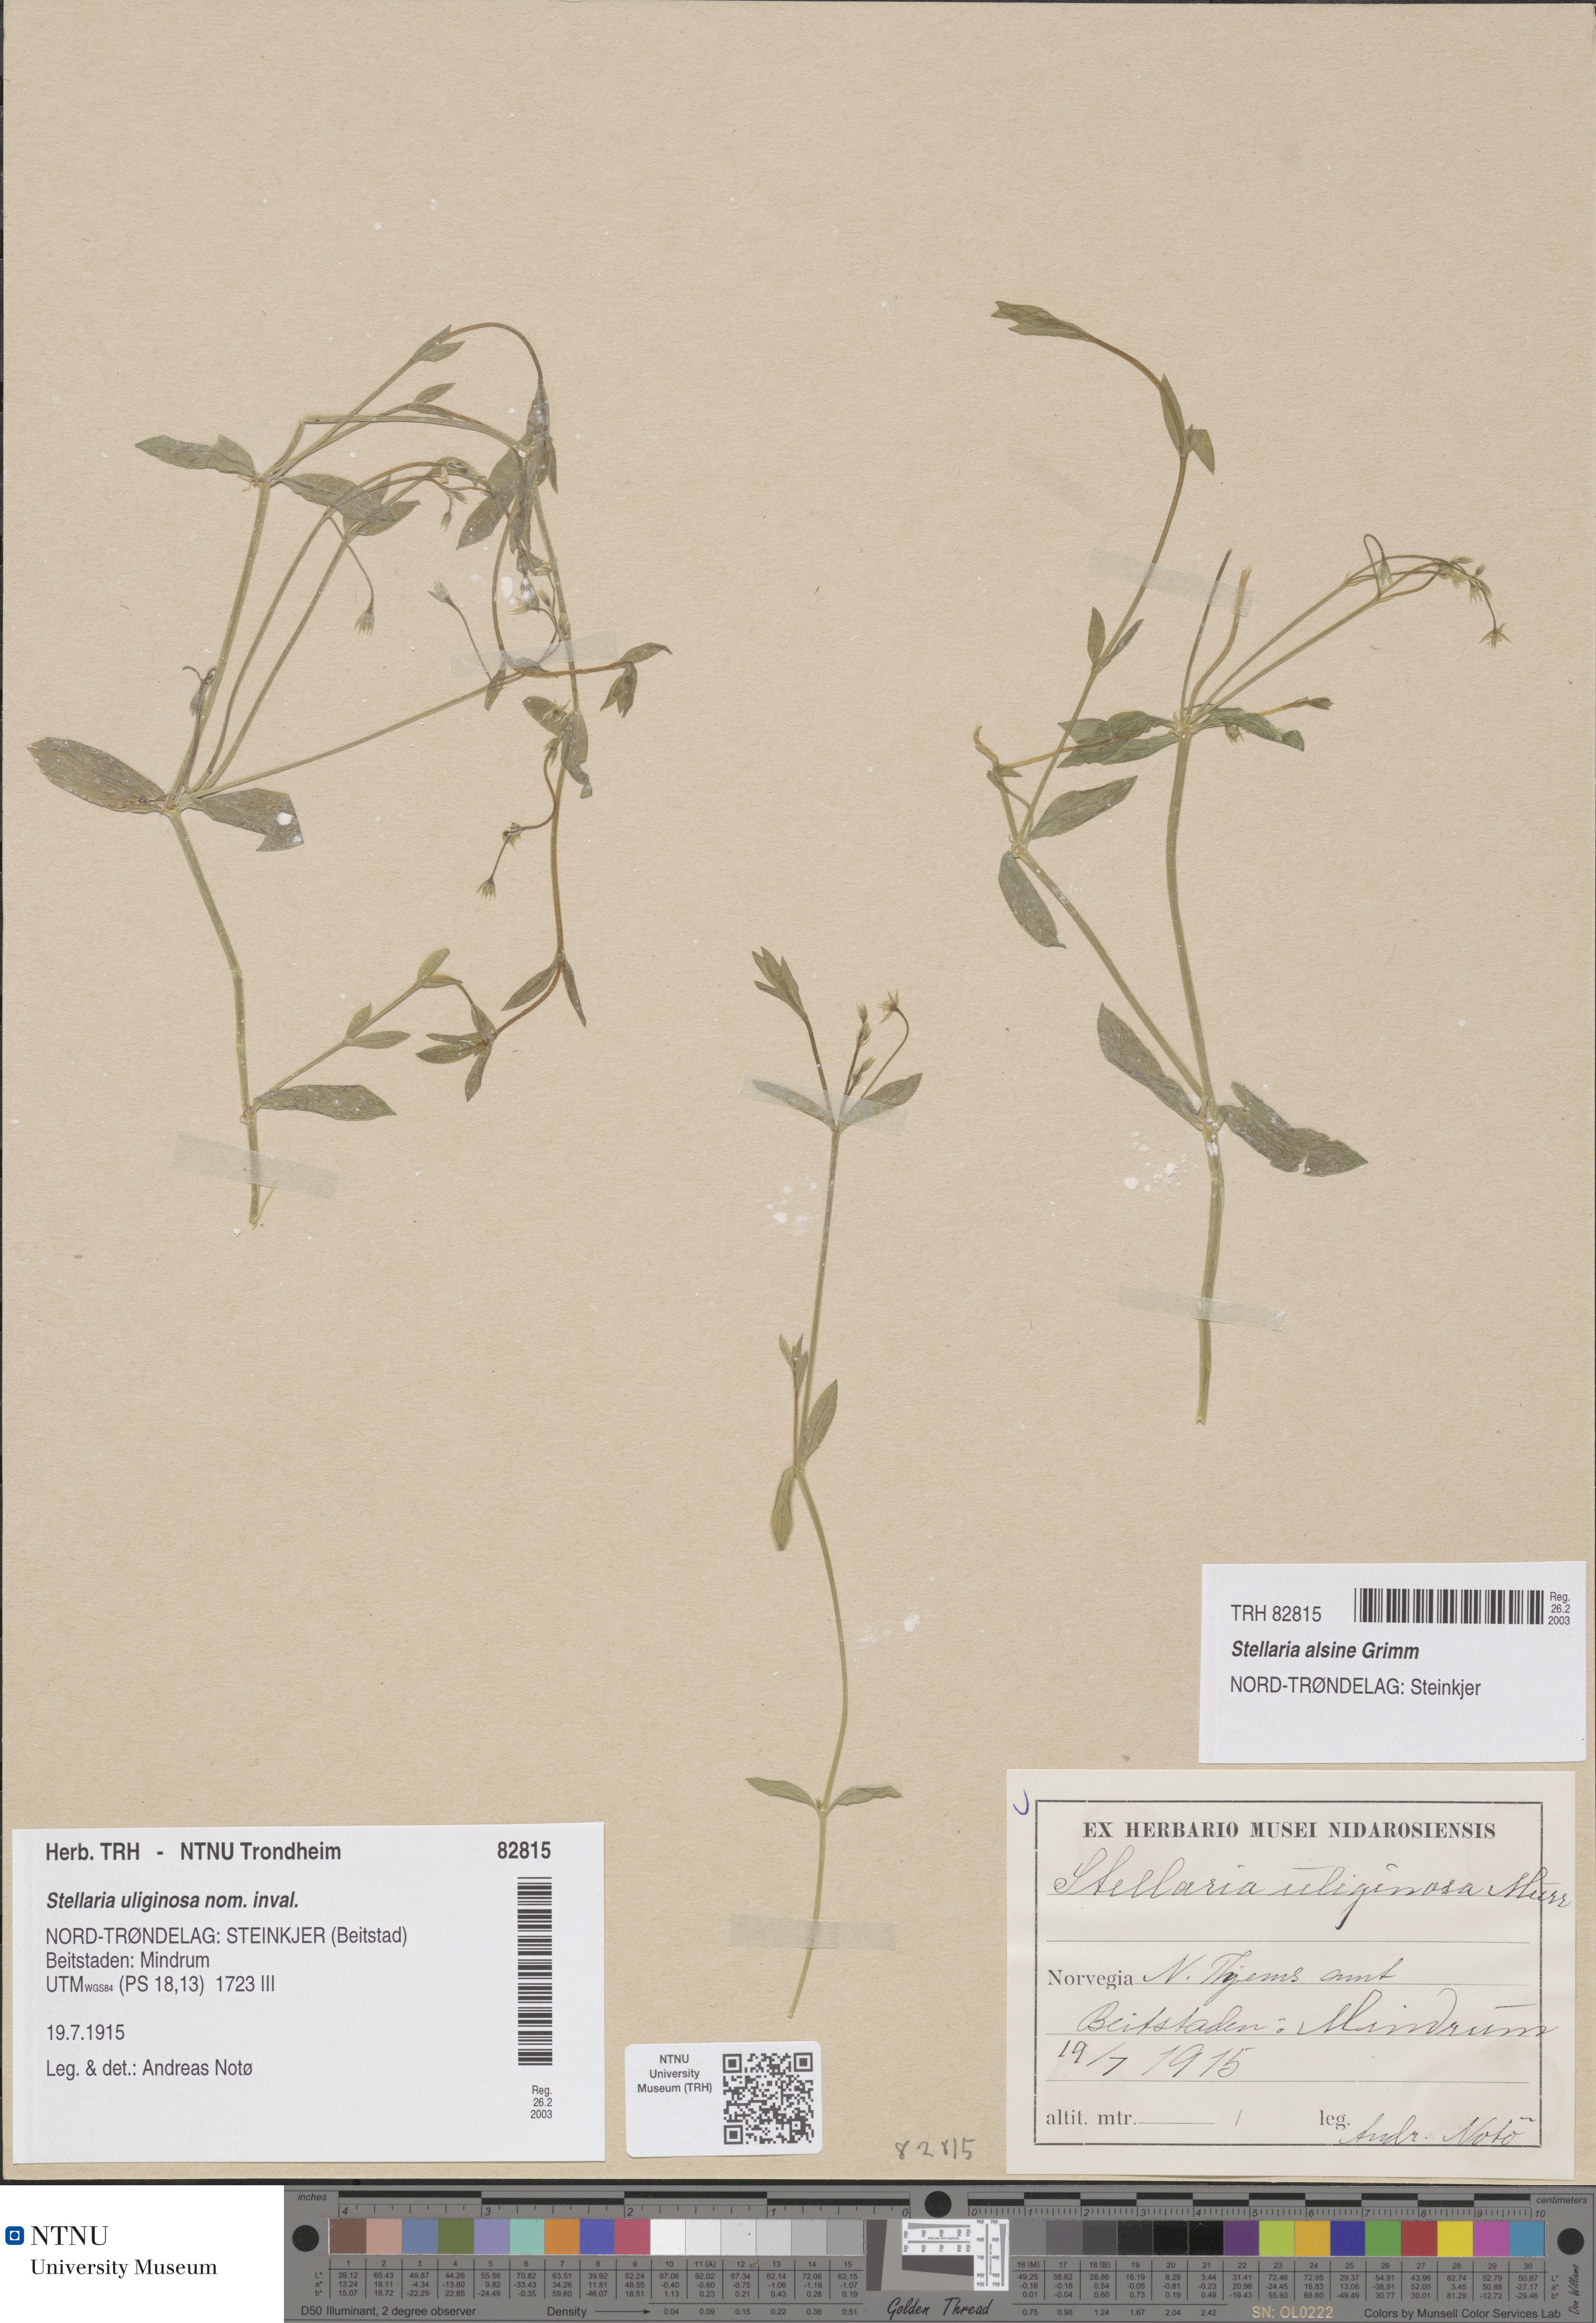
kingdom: Plantae
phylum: Tracheophyta
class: Magnoliopsida
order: Caryophyllales
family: Caryophyllaceae
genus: Stellaria
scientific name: Stellaria alsine
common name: Bog stitchwort
